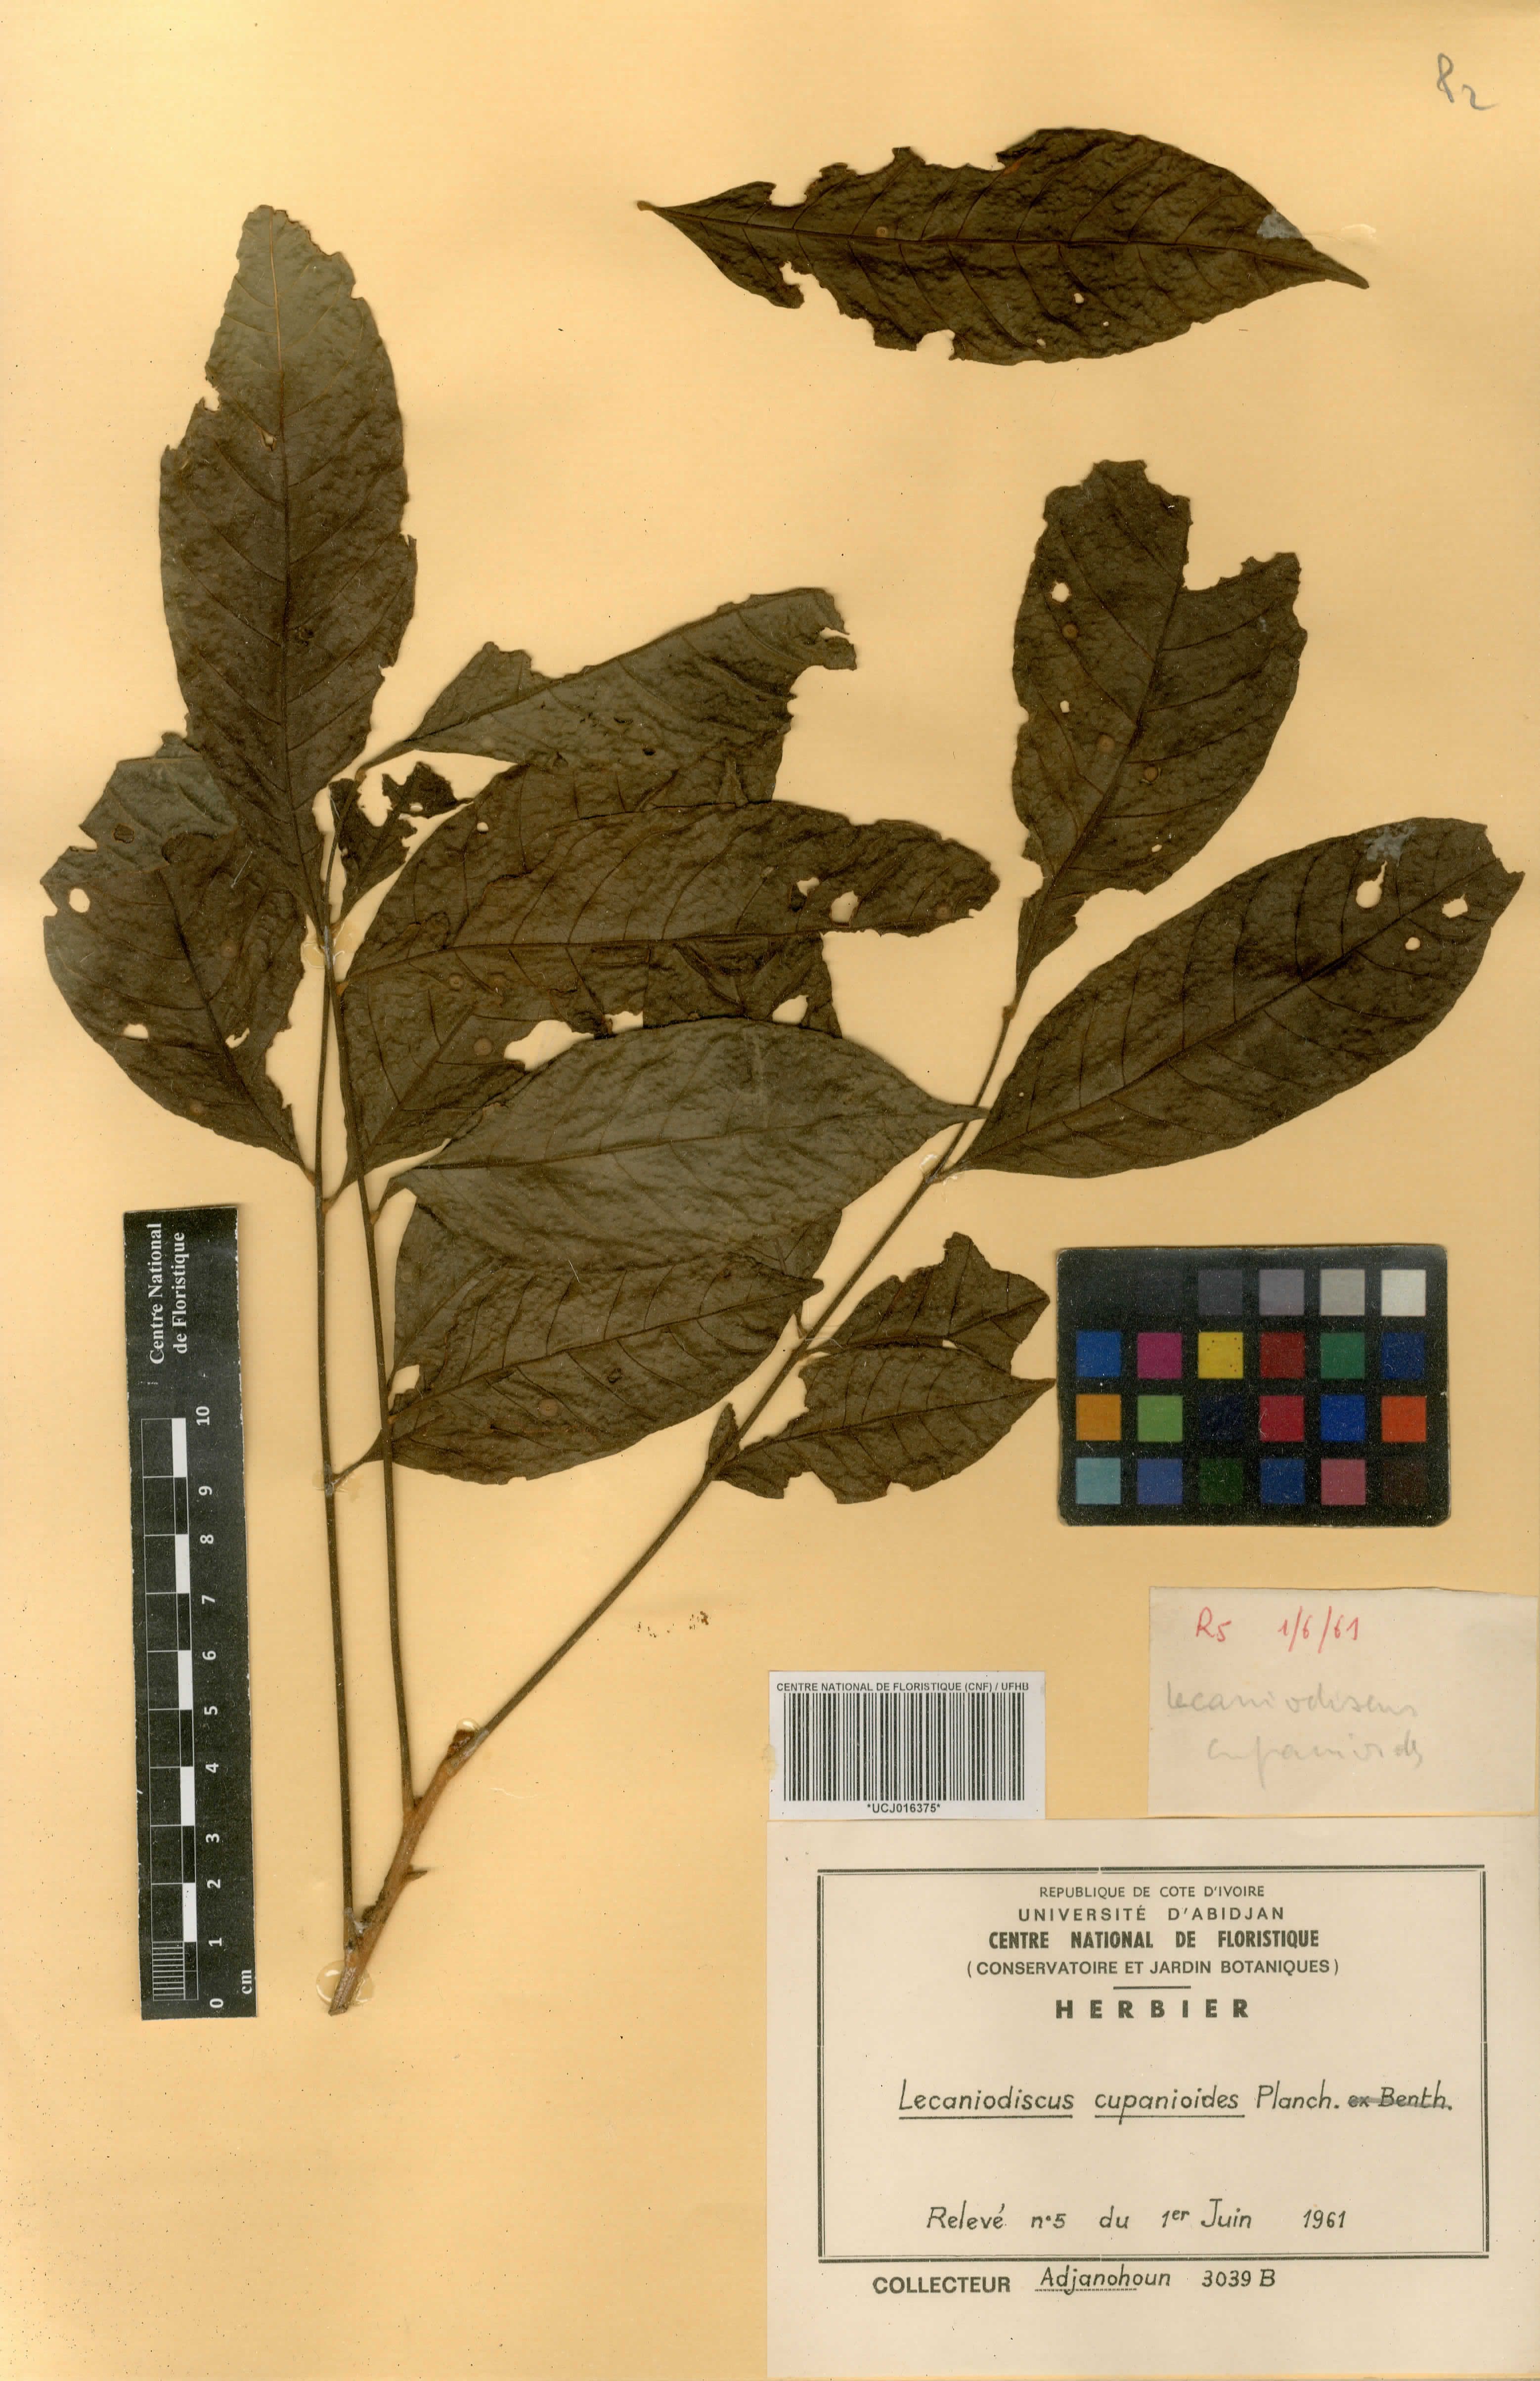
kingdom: Plantae
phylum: Tracheophyta
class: Magnoliopsida
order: Sapindales
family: Sapindaceae
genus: Lecaniodiscus
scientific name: Lecaniodiscus cupanioides
